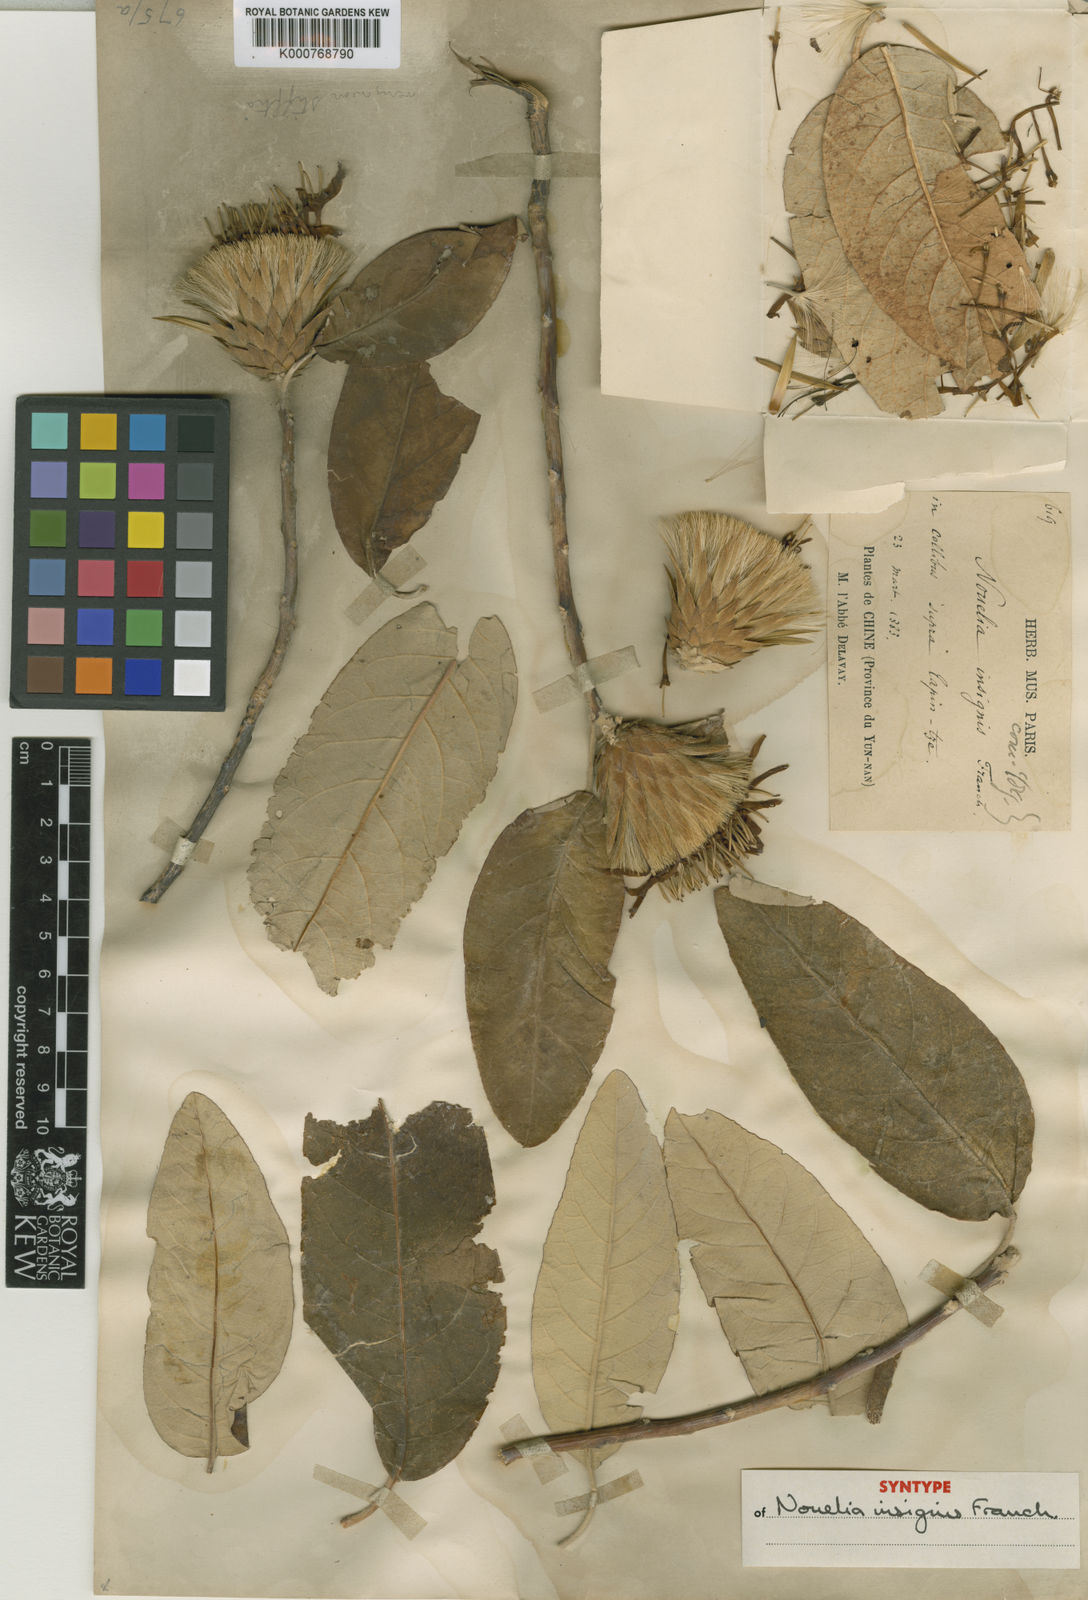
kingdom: Plantae
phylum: Tracheophyta
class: Magnoliopsida
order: Asterales
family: Asteraceae
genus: Nouelia
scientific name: Nouelia insignis
